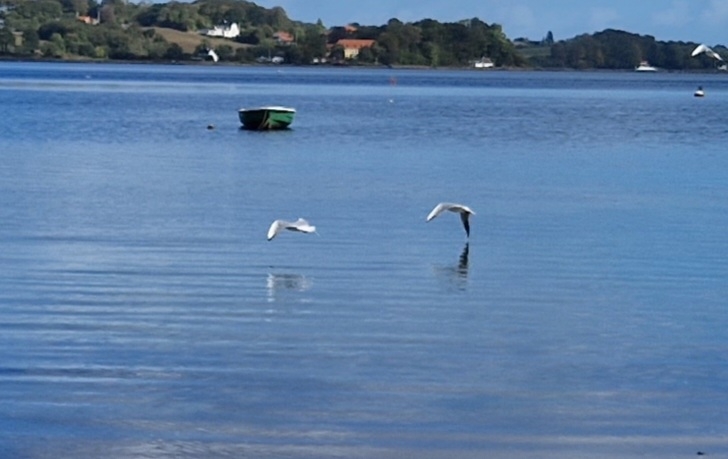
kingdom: Animalia
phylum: Chordata
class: Aves
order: Charadriiformes
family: Laridae
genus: Chroicocephalus
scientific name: Chroicocephalus ridibundus
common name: Hættemåge
